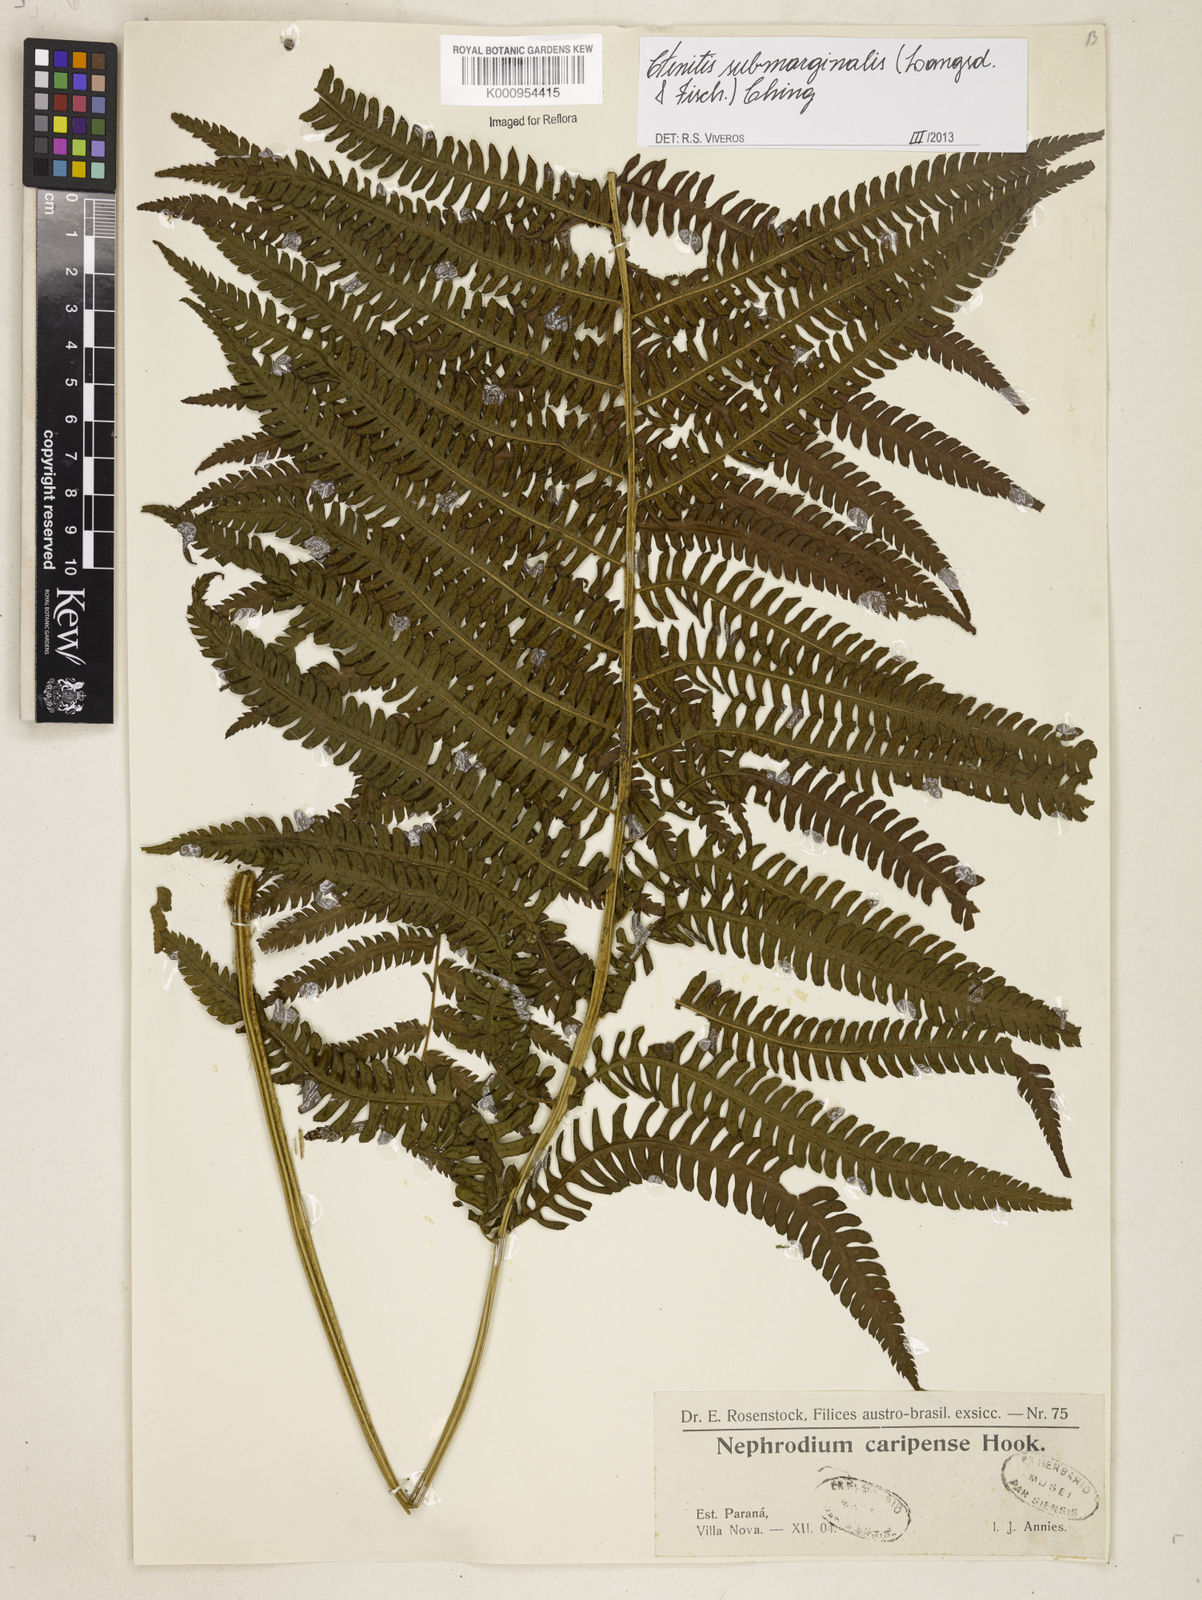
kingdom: Plantae
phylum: Tracheophyta
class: Polypodiopsida
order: Polypodiales
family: Dryopteridaceae
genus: Ctenitis
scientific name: Ctenitis submarginalis
